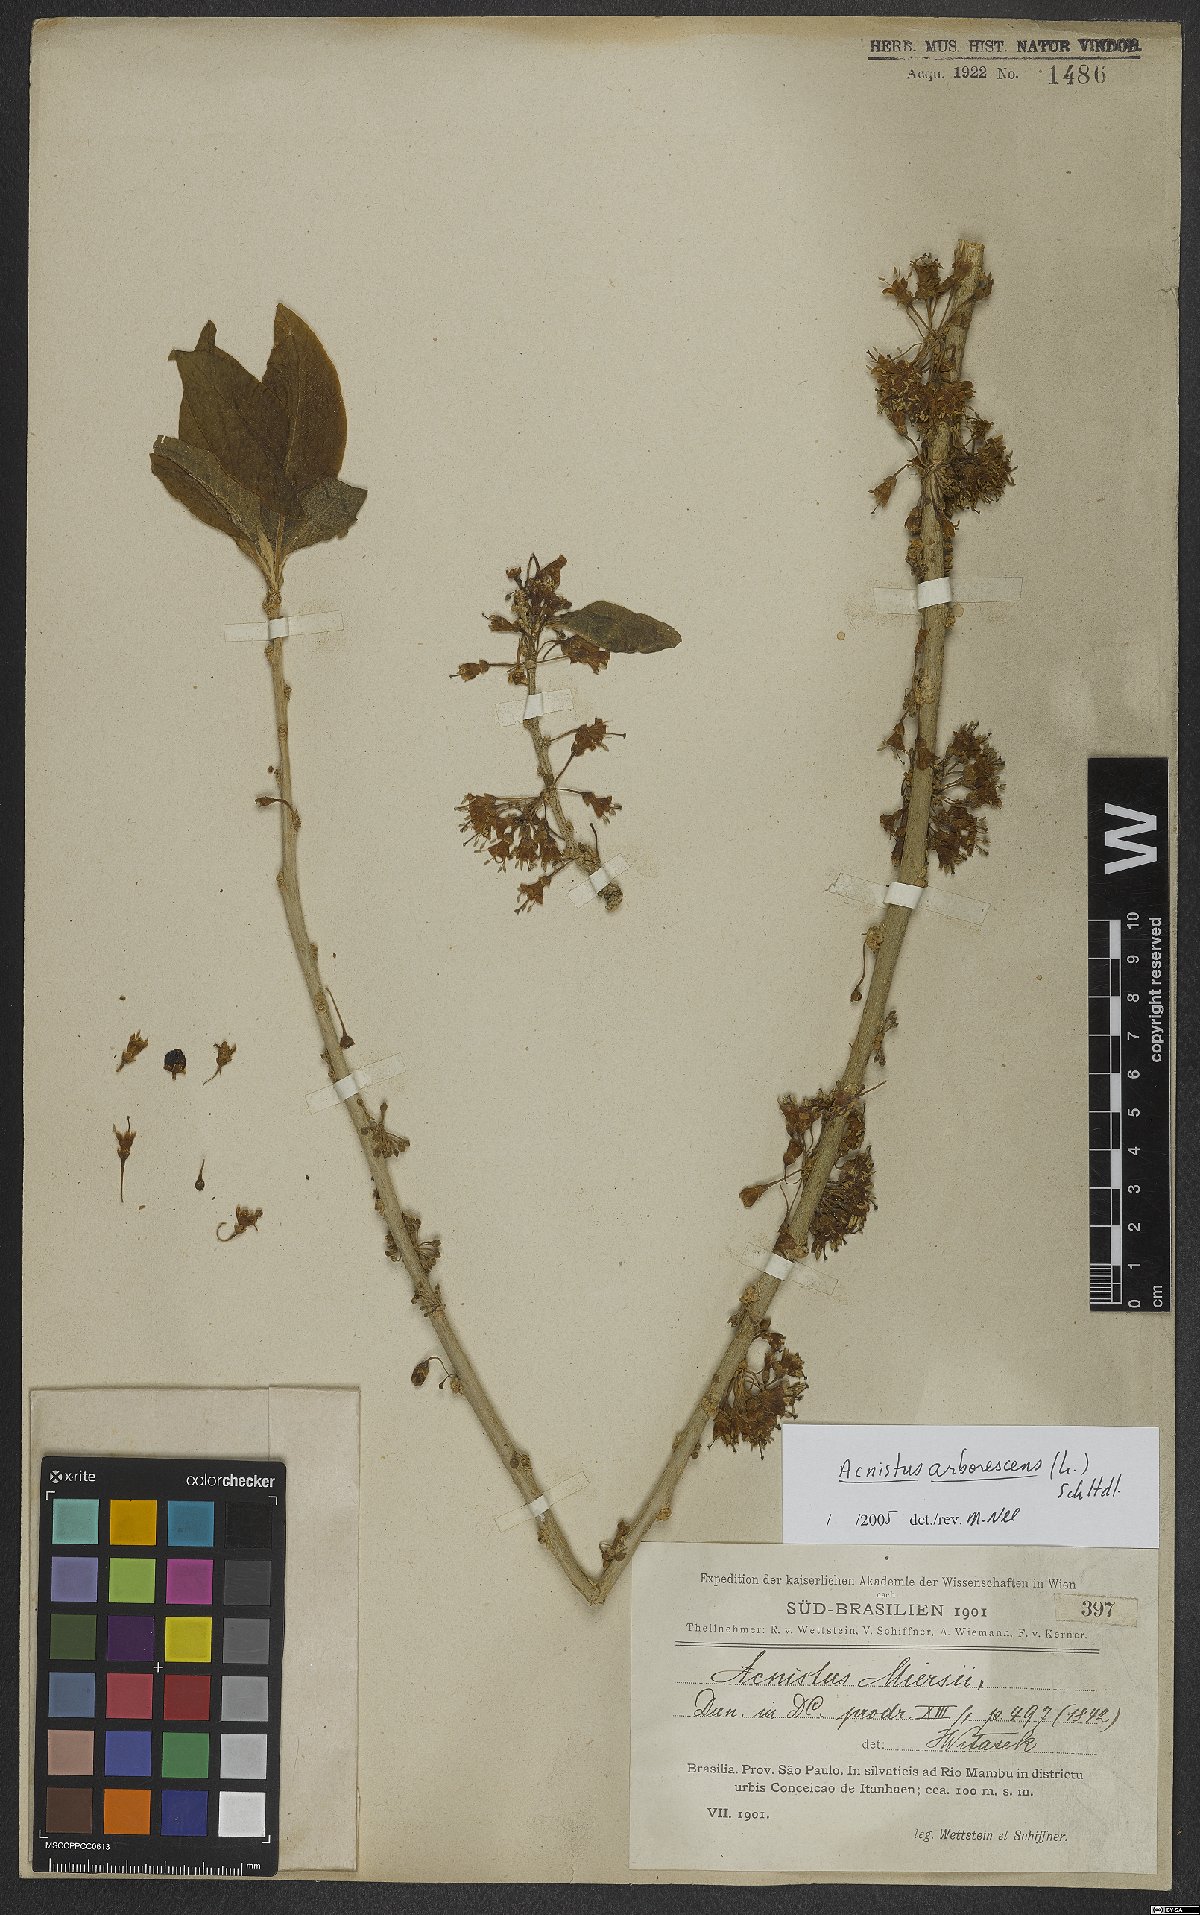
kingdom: Plantae
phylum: Tracheophyta
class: Magnoliopsida
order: Solanales
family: Solanaceae
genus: Iochroma
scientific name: Iochroma arborescens
